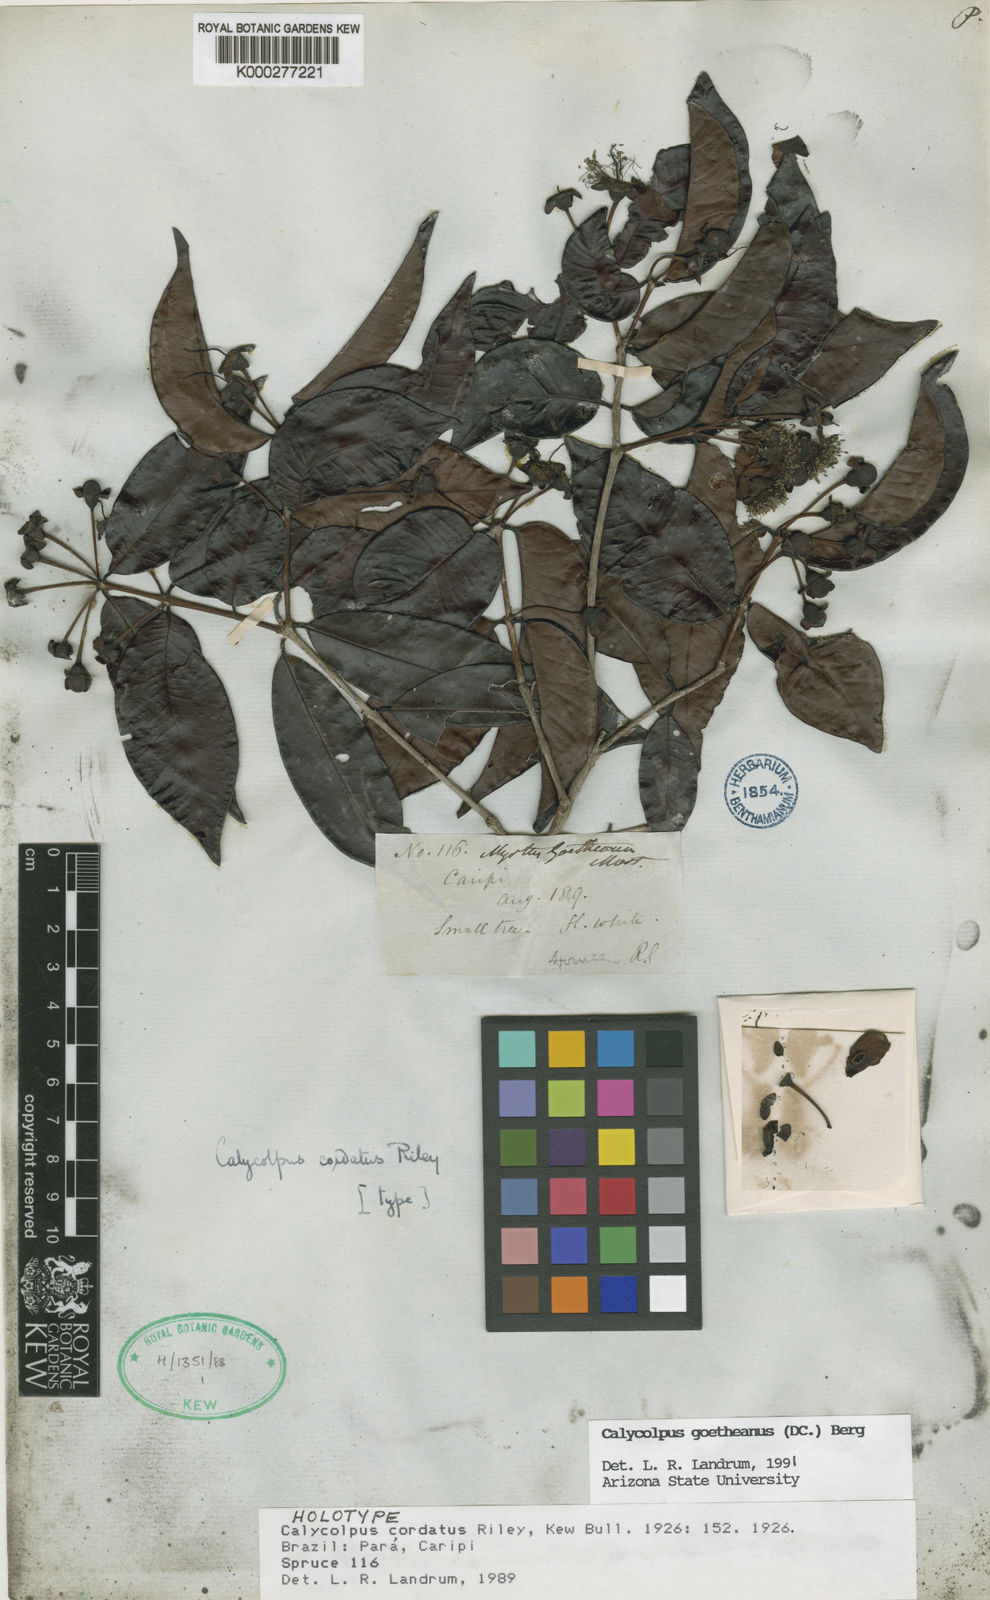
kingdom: Plantae
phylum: Tracheophyta
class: Magnoliopsida
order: Myrtales
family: Myrtaceae
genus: Calycolpus
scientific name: Calycolpus goetheanus
